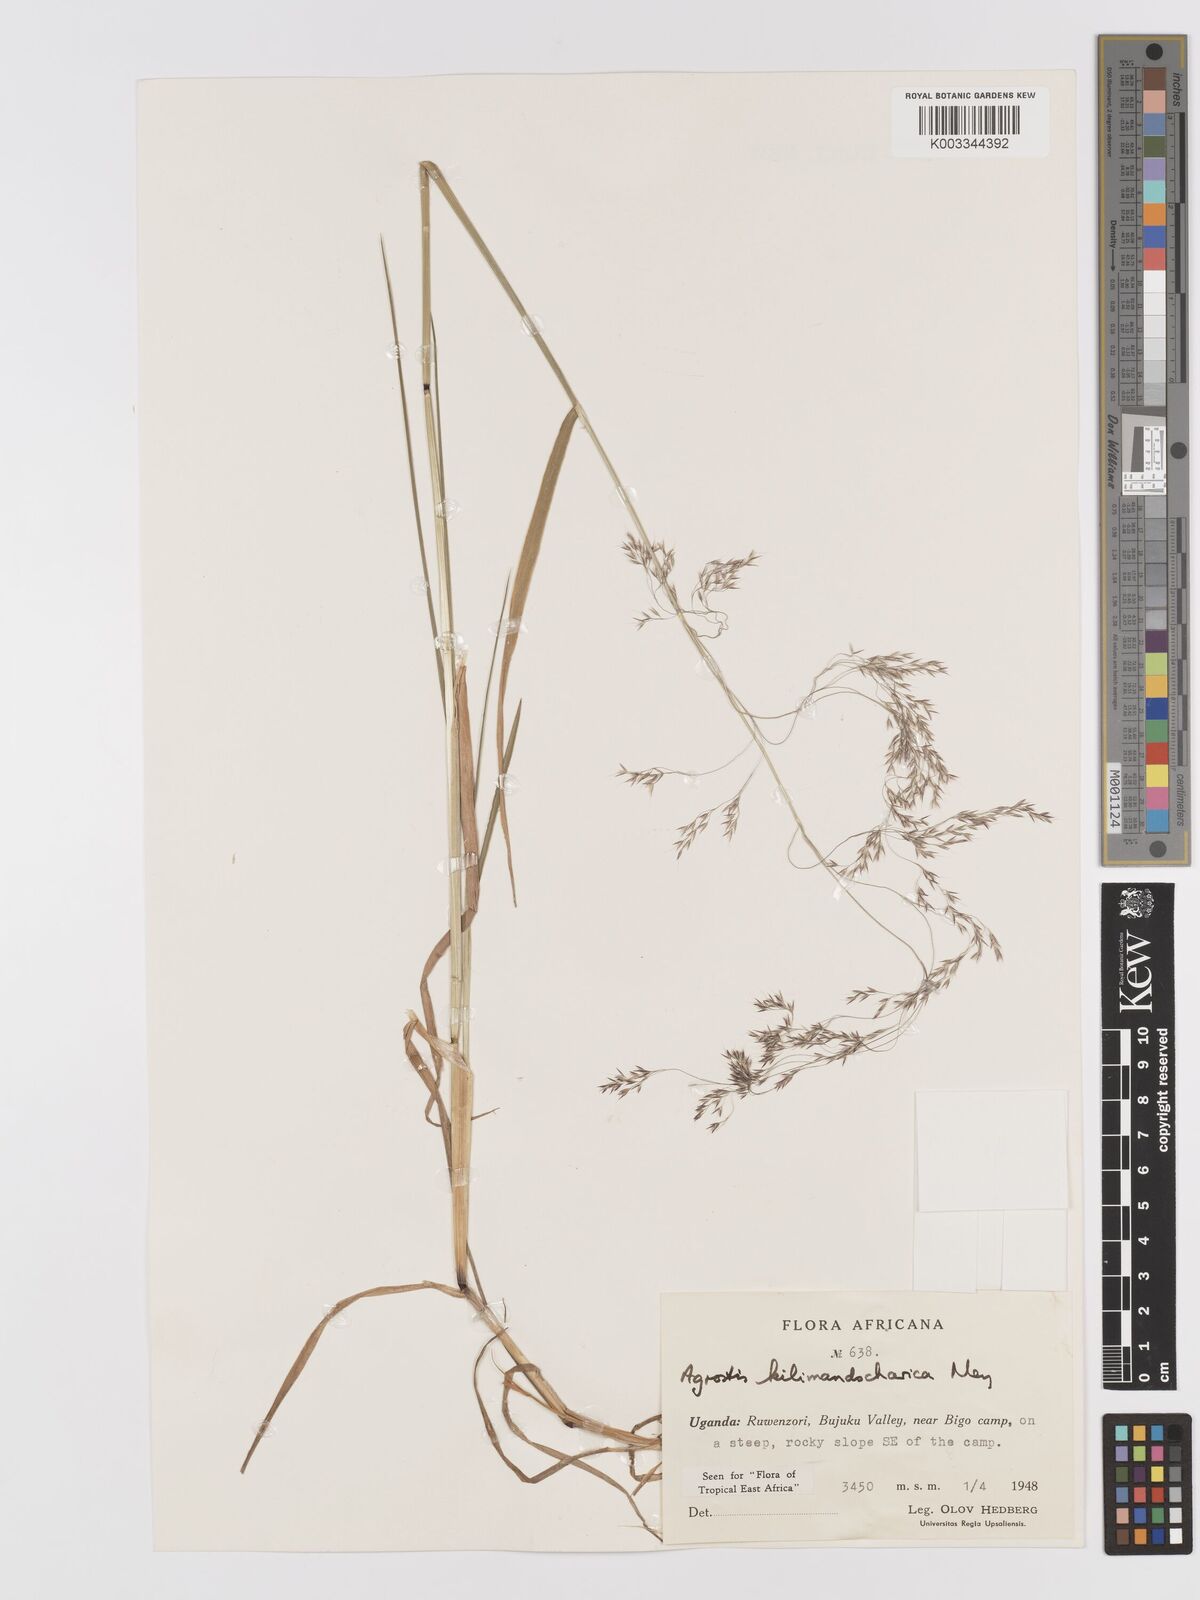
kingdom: Plantae
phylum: Tracheophyta
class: Liliopsida
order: Poales
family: Poaceae
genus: Agrostis
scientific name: Agrostis kilimandscharica
